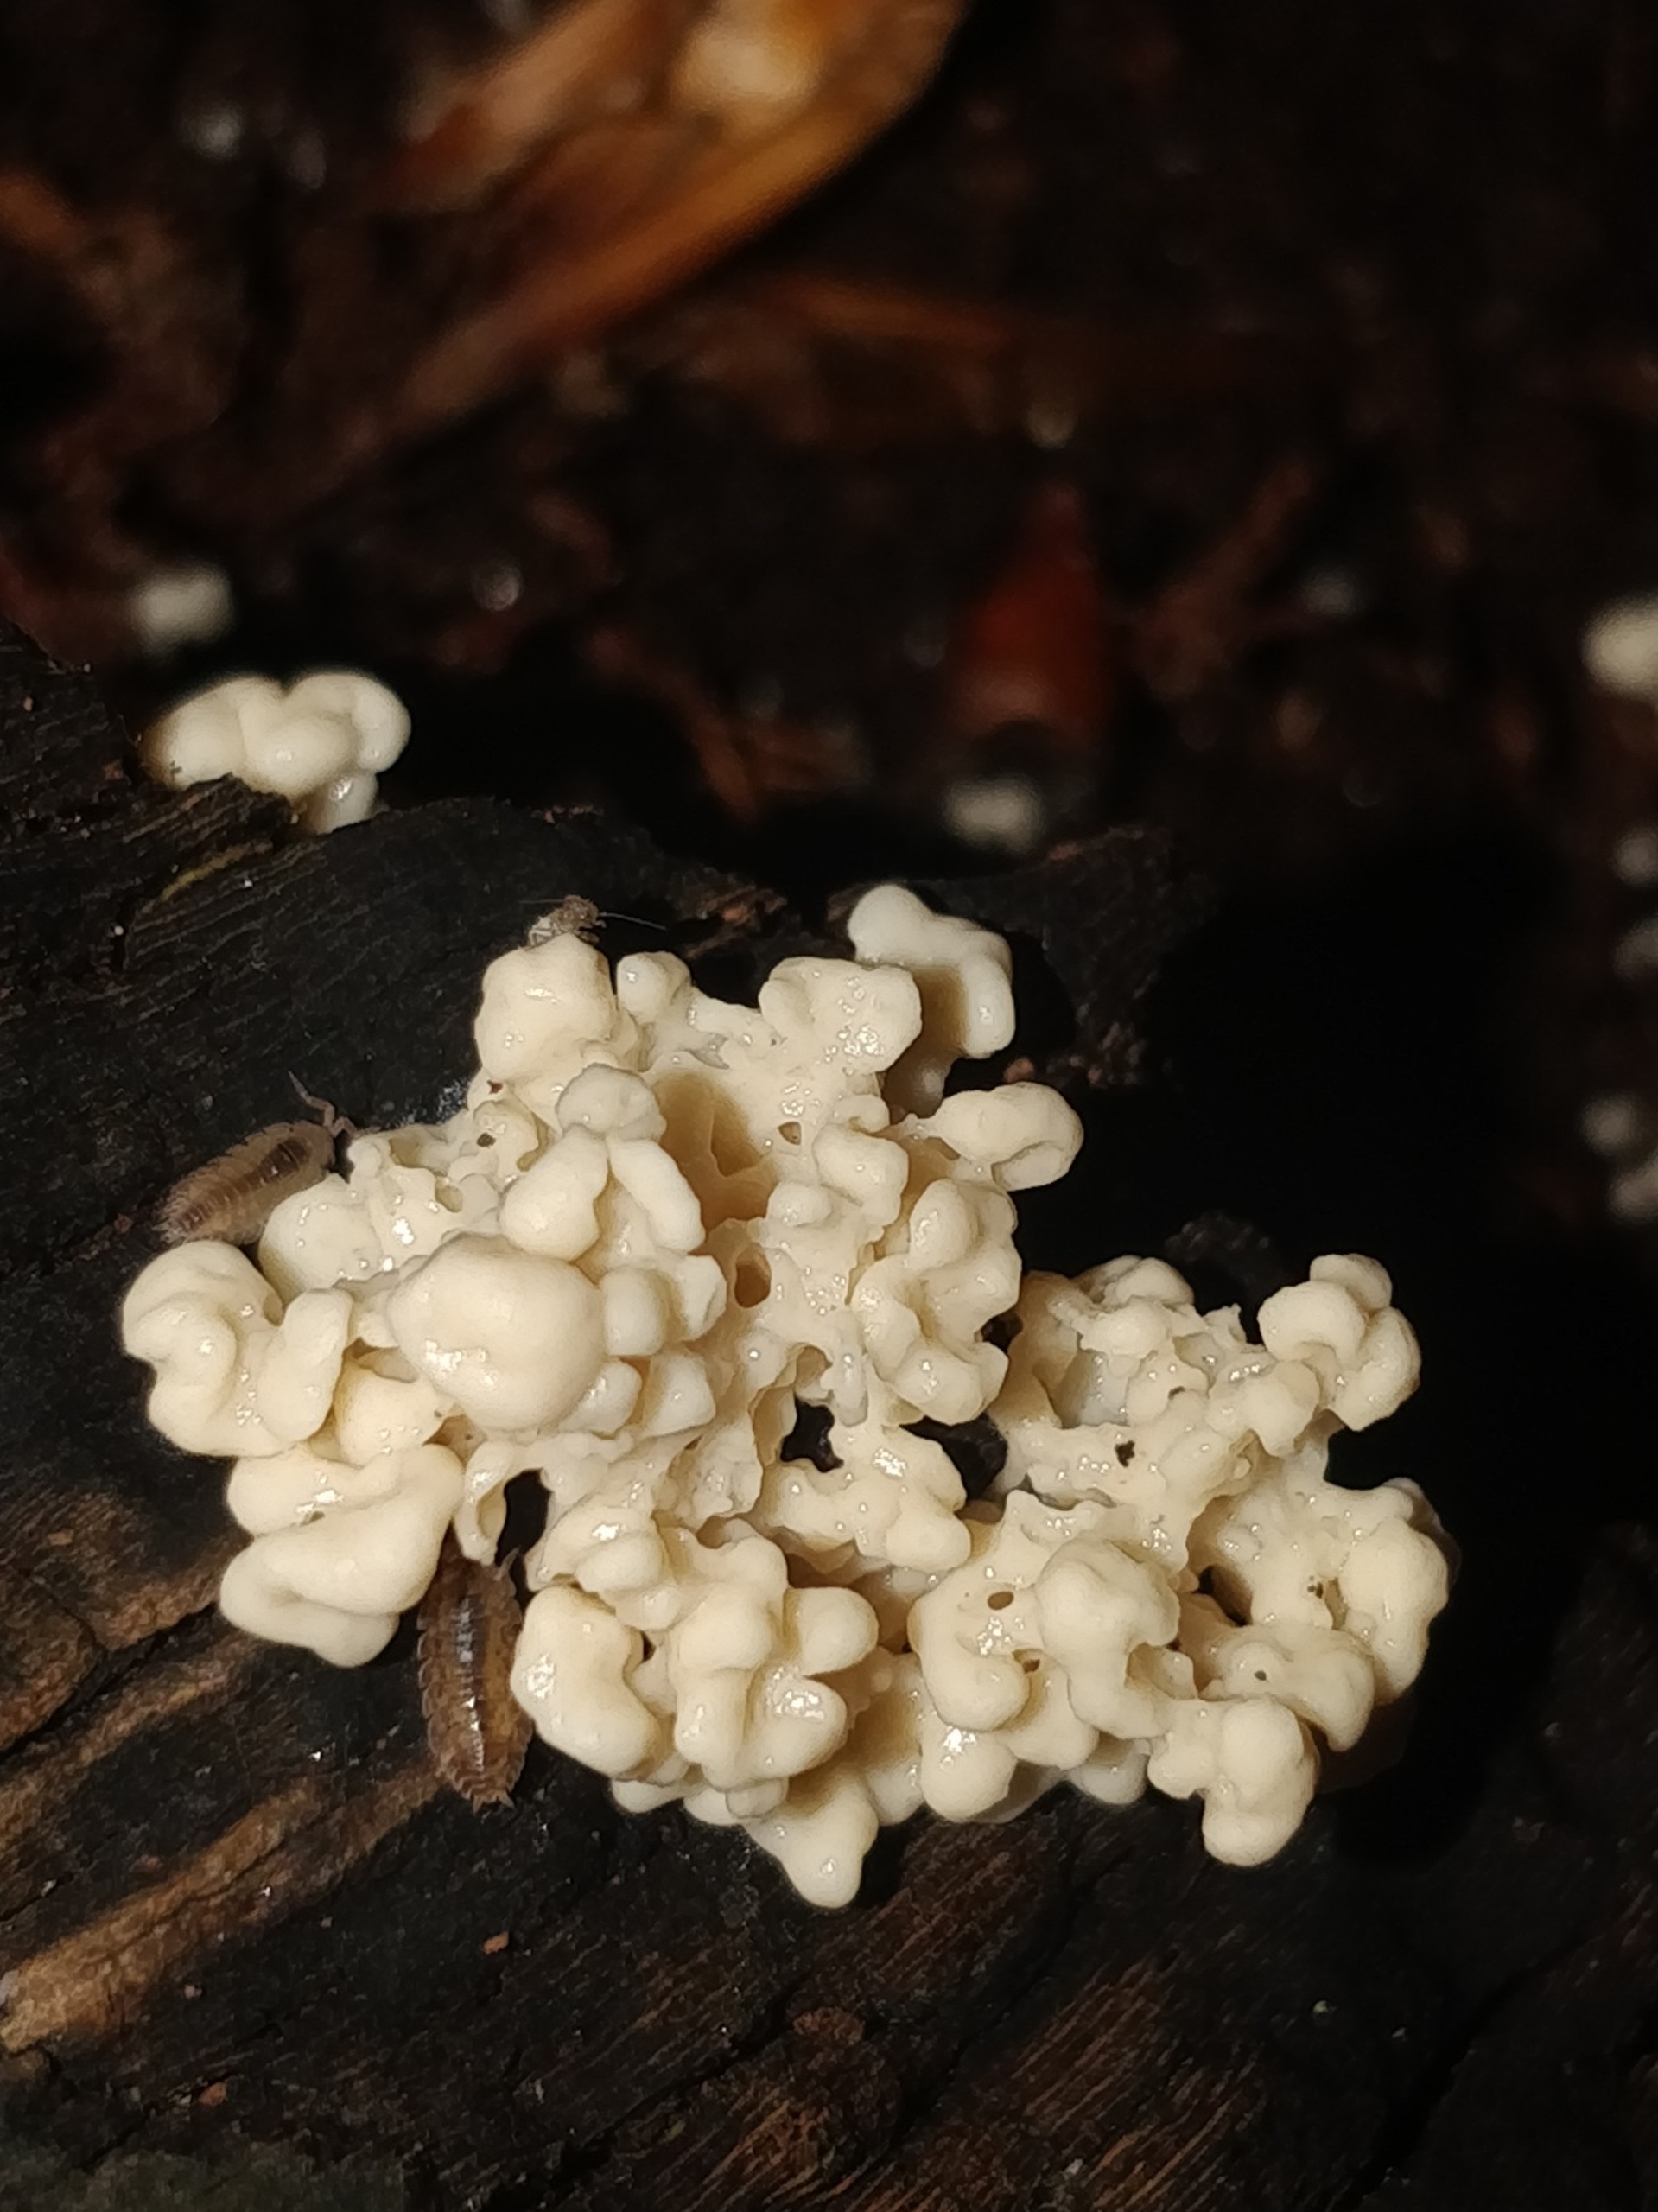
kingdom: Fungi
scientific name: Fungi
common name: Svamperiget
